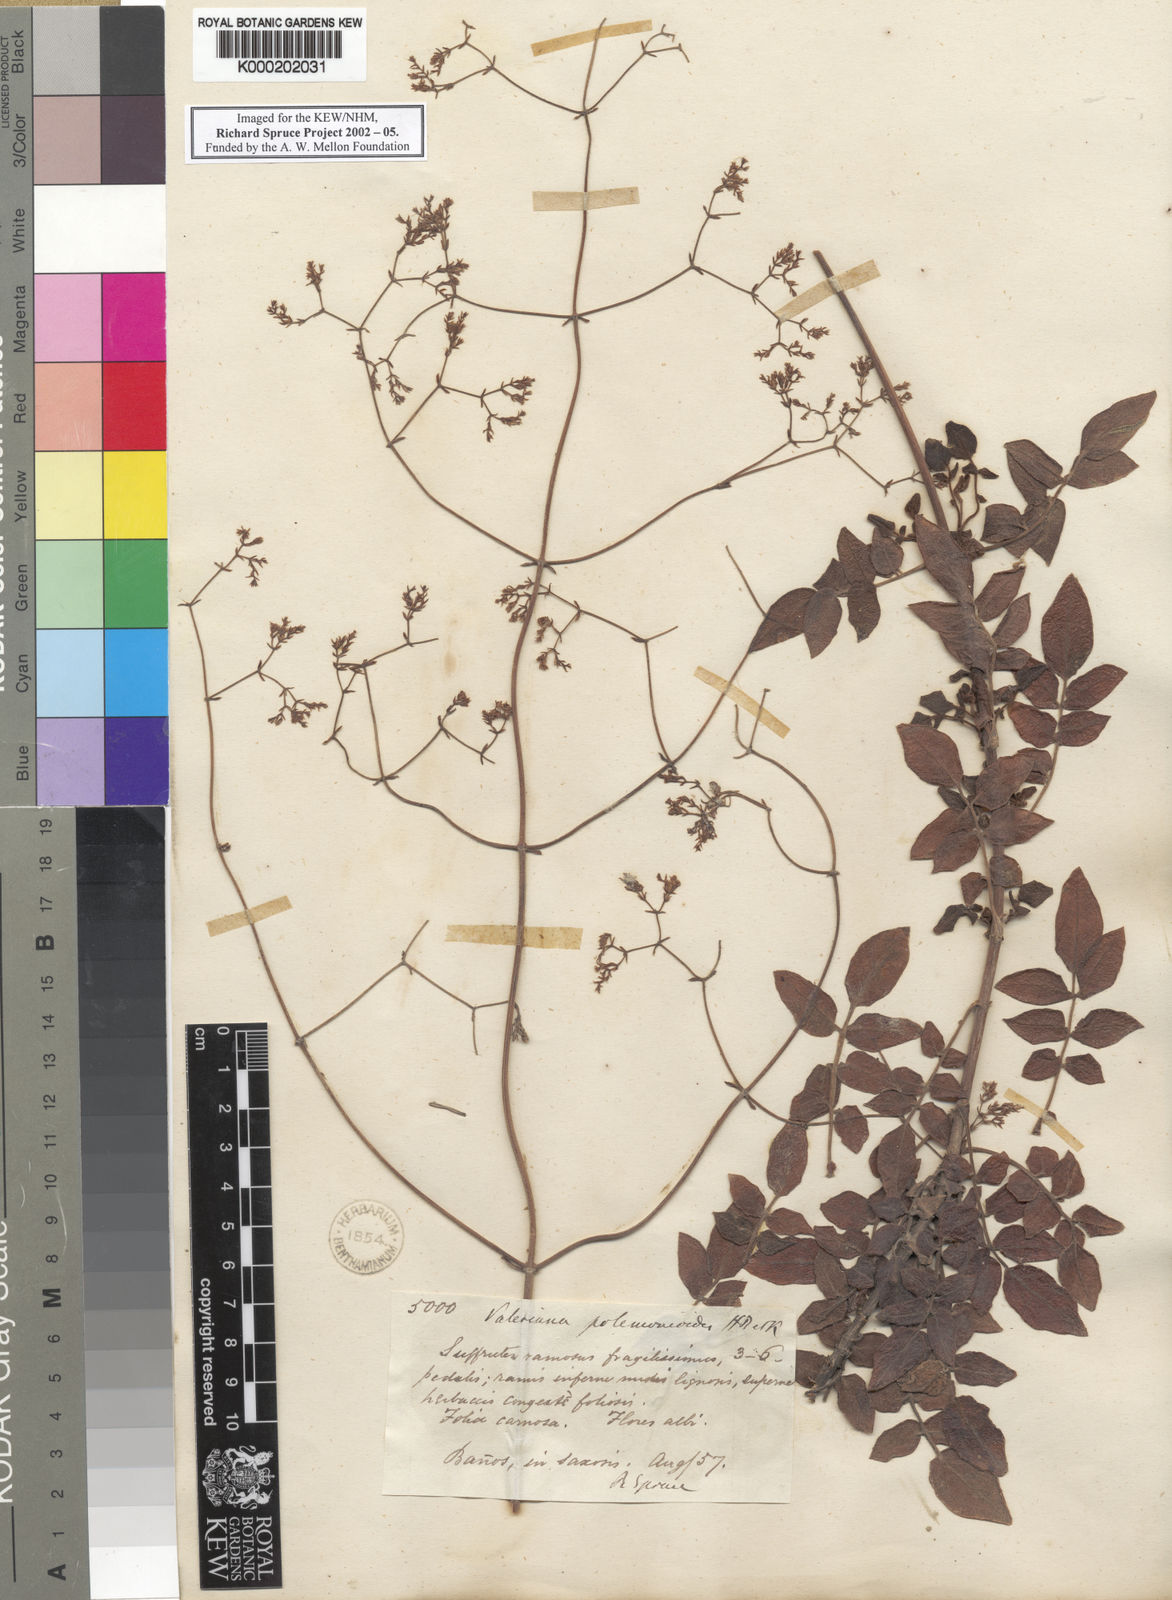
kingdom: Plantae
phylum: Tracheophyta
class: Magnoliopsida
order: Dipsacales
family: Caprifoliaceae
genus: Valeriana
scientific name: Valeriana decussata
